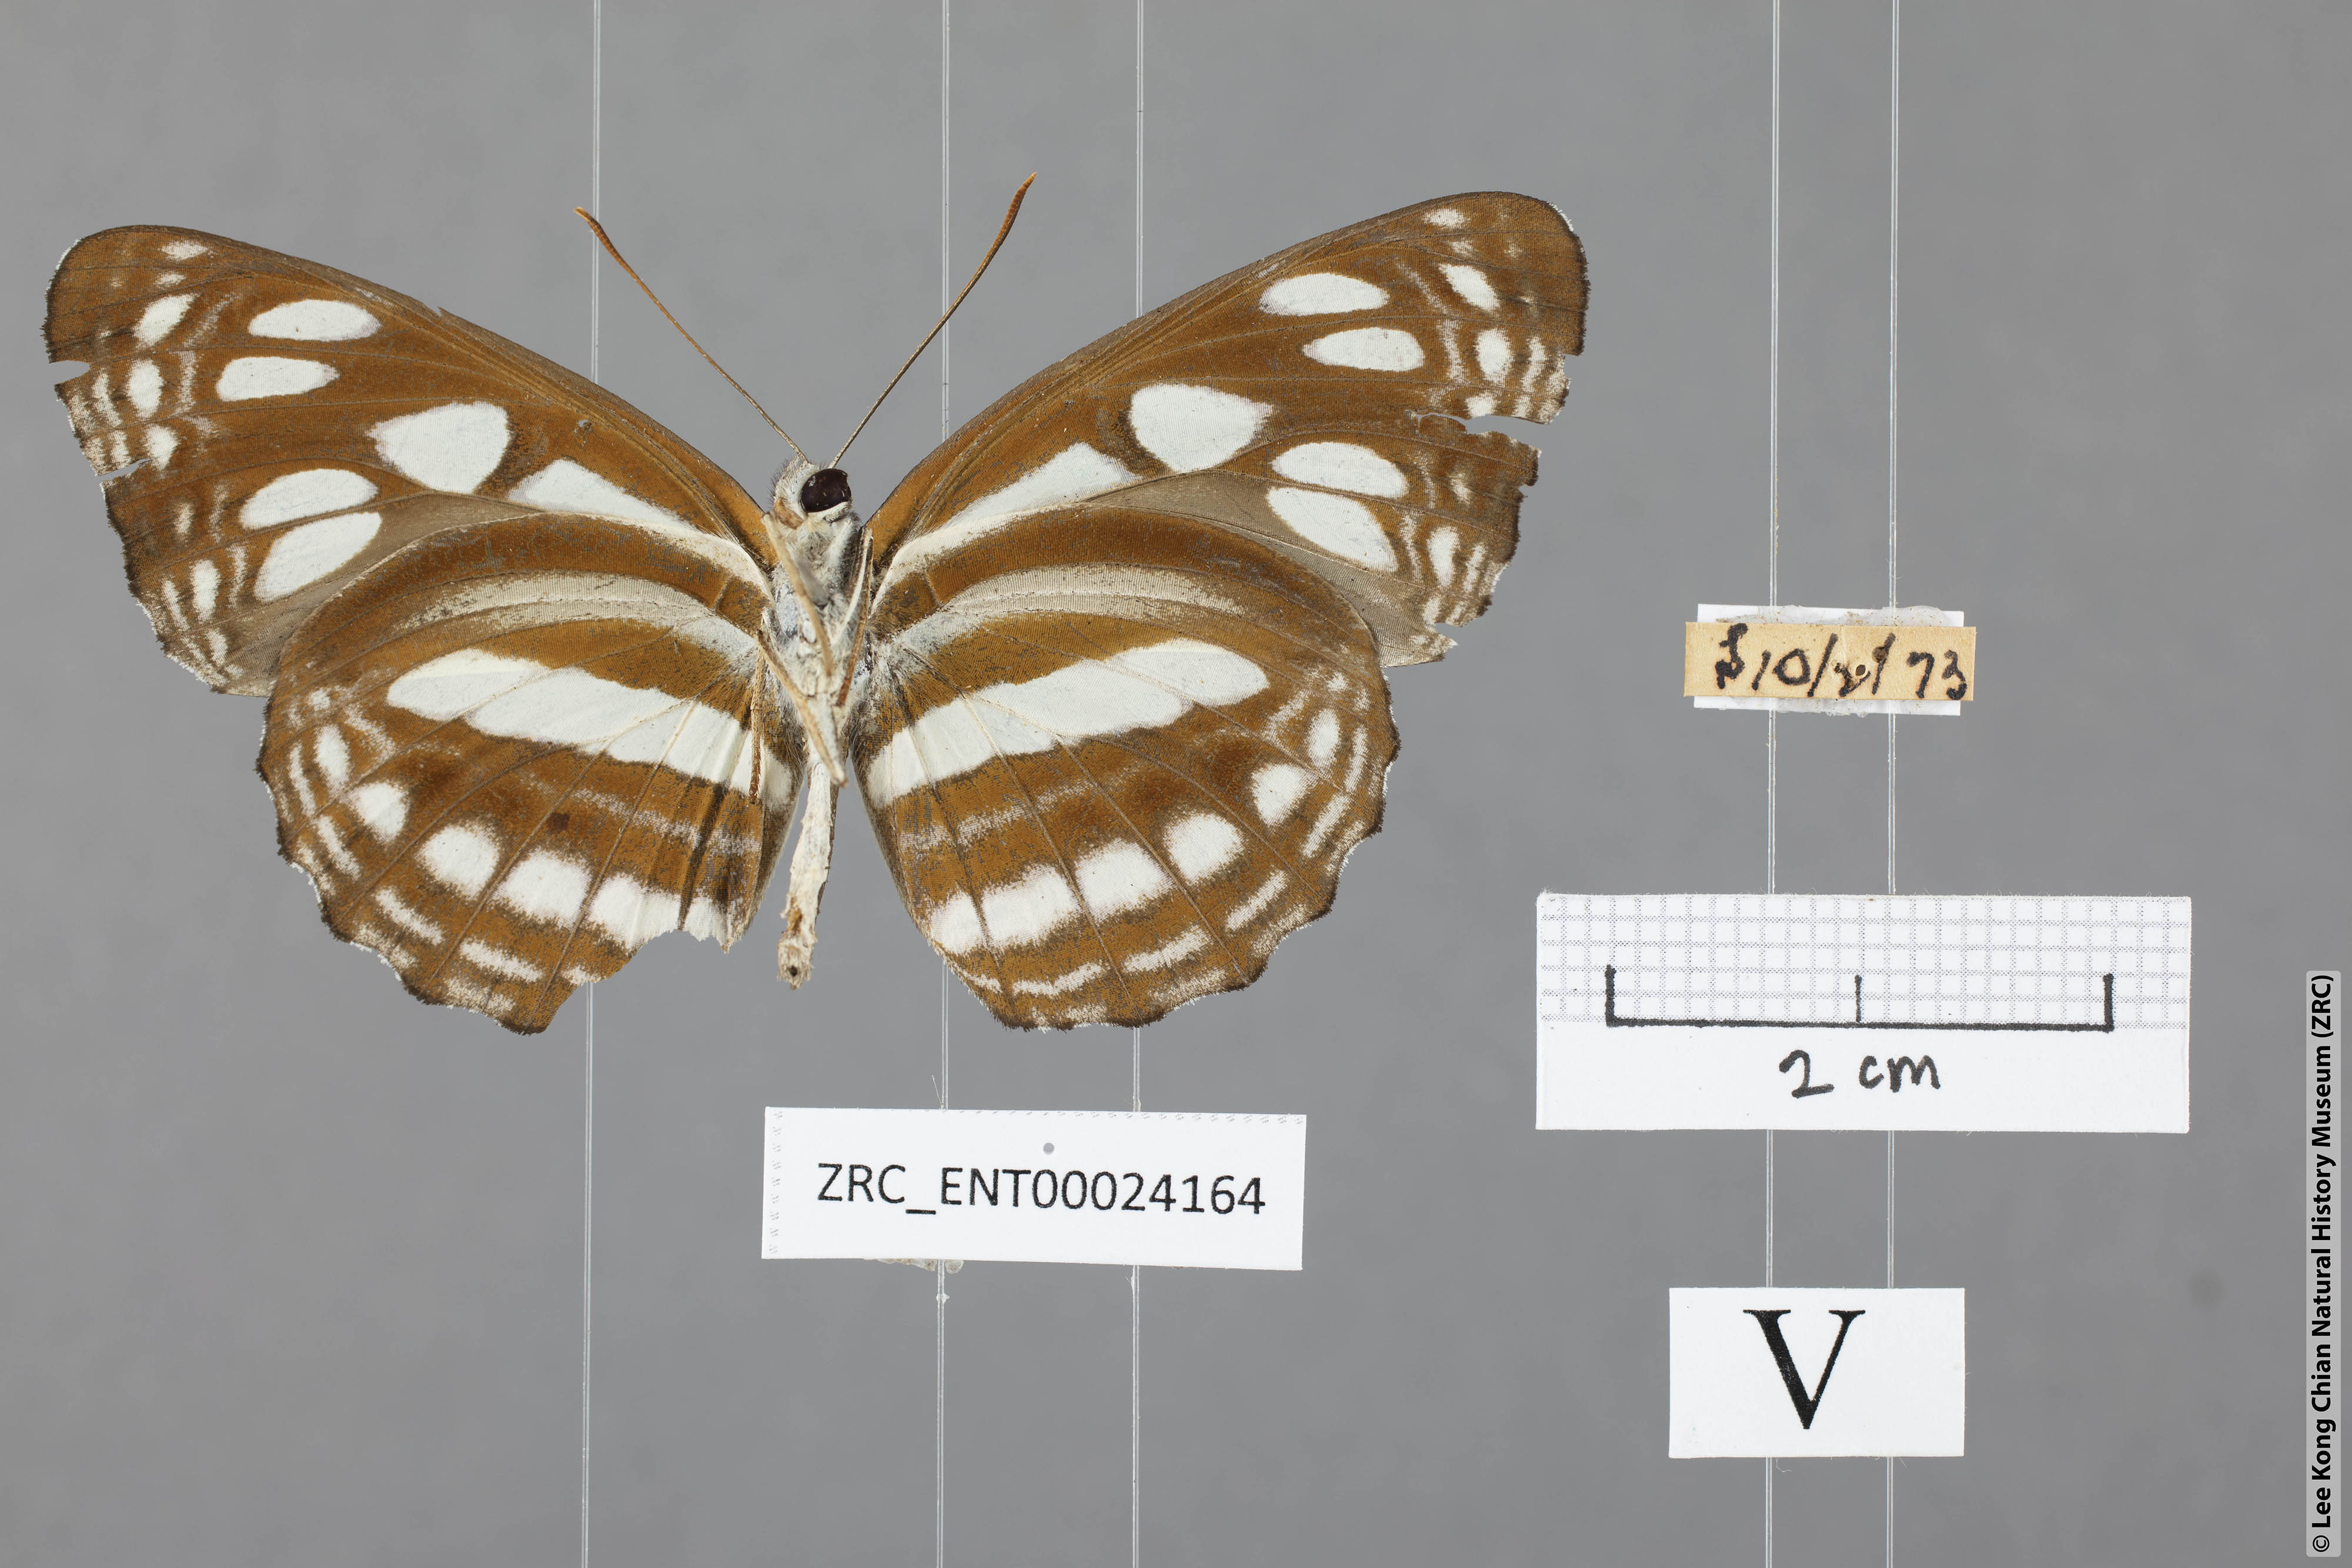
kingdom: Animalia
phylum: Arthropoda
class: Insecta
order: Lepidoptera
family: Nymphalidae
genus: Phaedyma
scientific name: Phaedyma columella
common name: Short banded sailer
